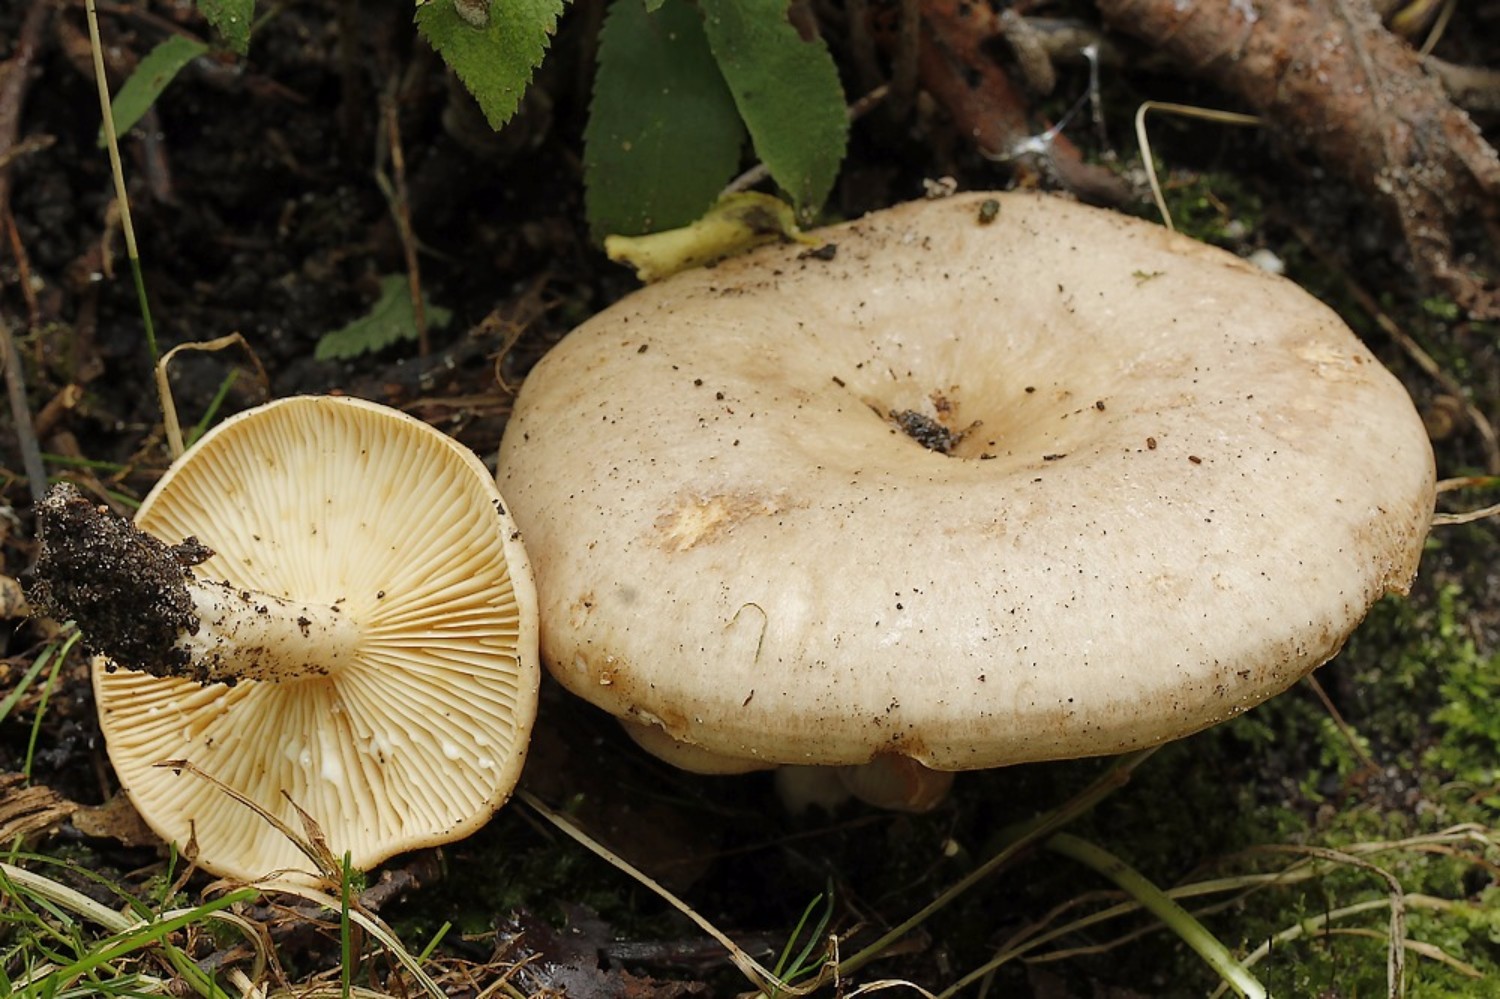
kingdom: Fungi
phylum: Basidiomycota
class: Agaricomycetes
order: Russulales
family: Russulaceae
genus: Lactarius
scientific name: Lactarius pyrogalus
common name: hassel-mælkehat
